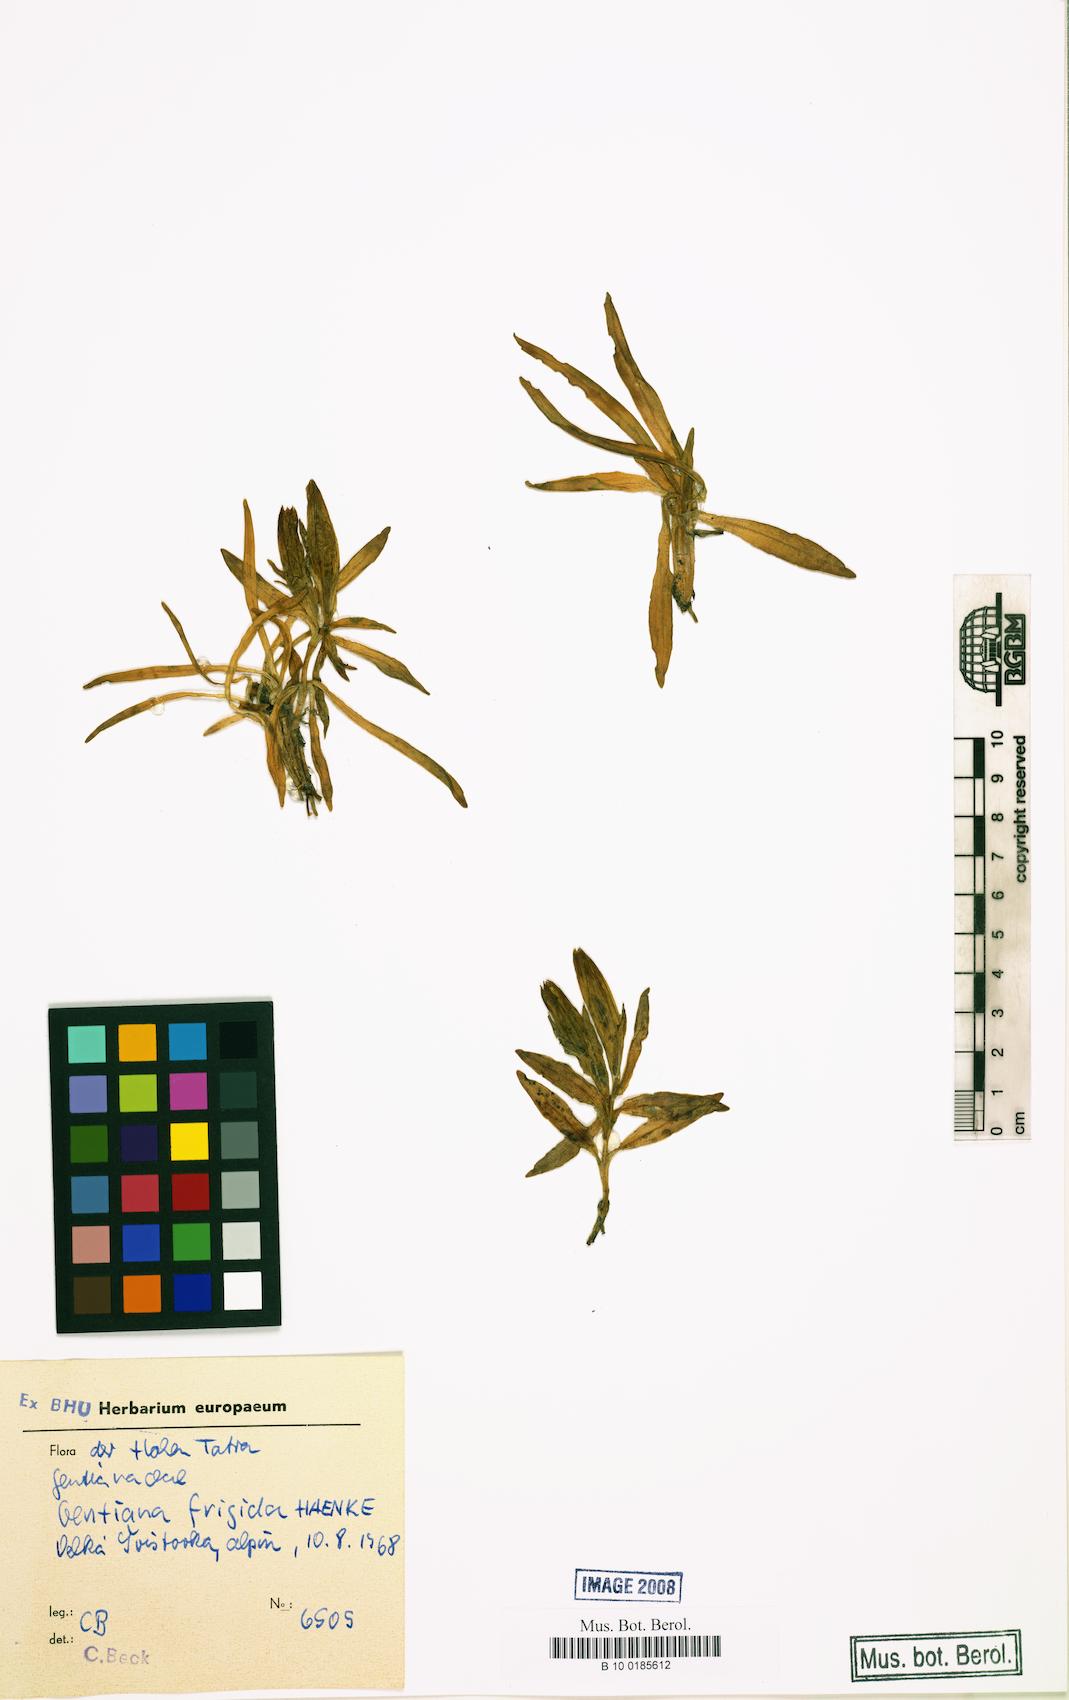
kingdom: Plantae
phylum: Tracheophyta
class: Magnoliopsida
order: Gentianales
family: Gentianaceae
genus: Gentiana
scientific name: Gentiana frigida
